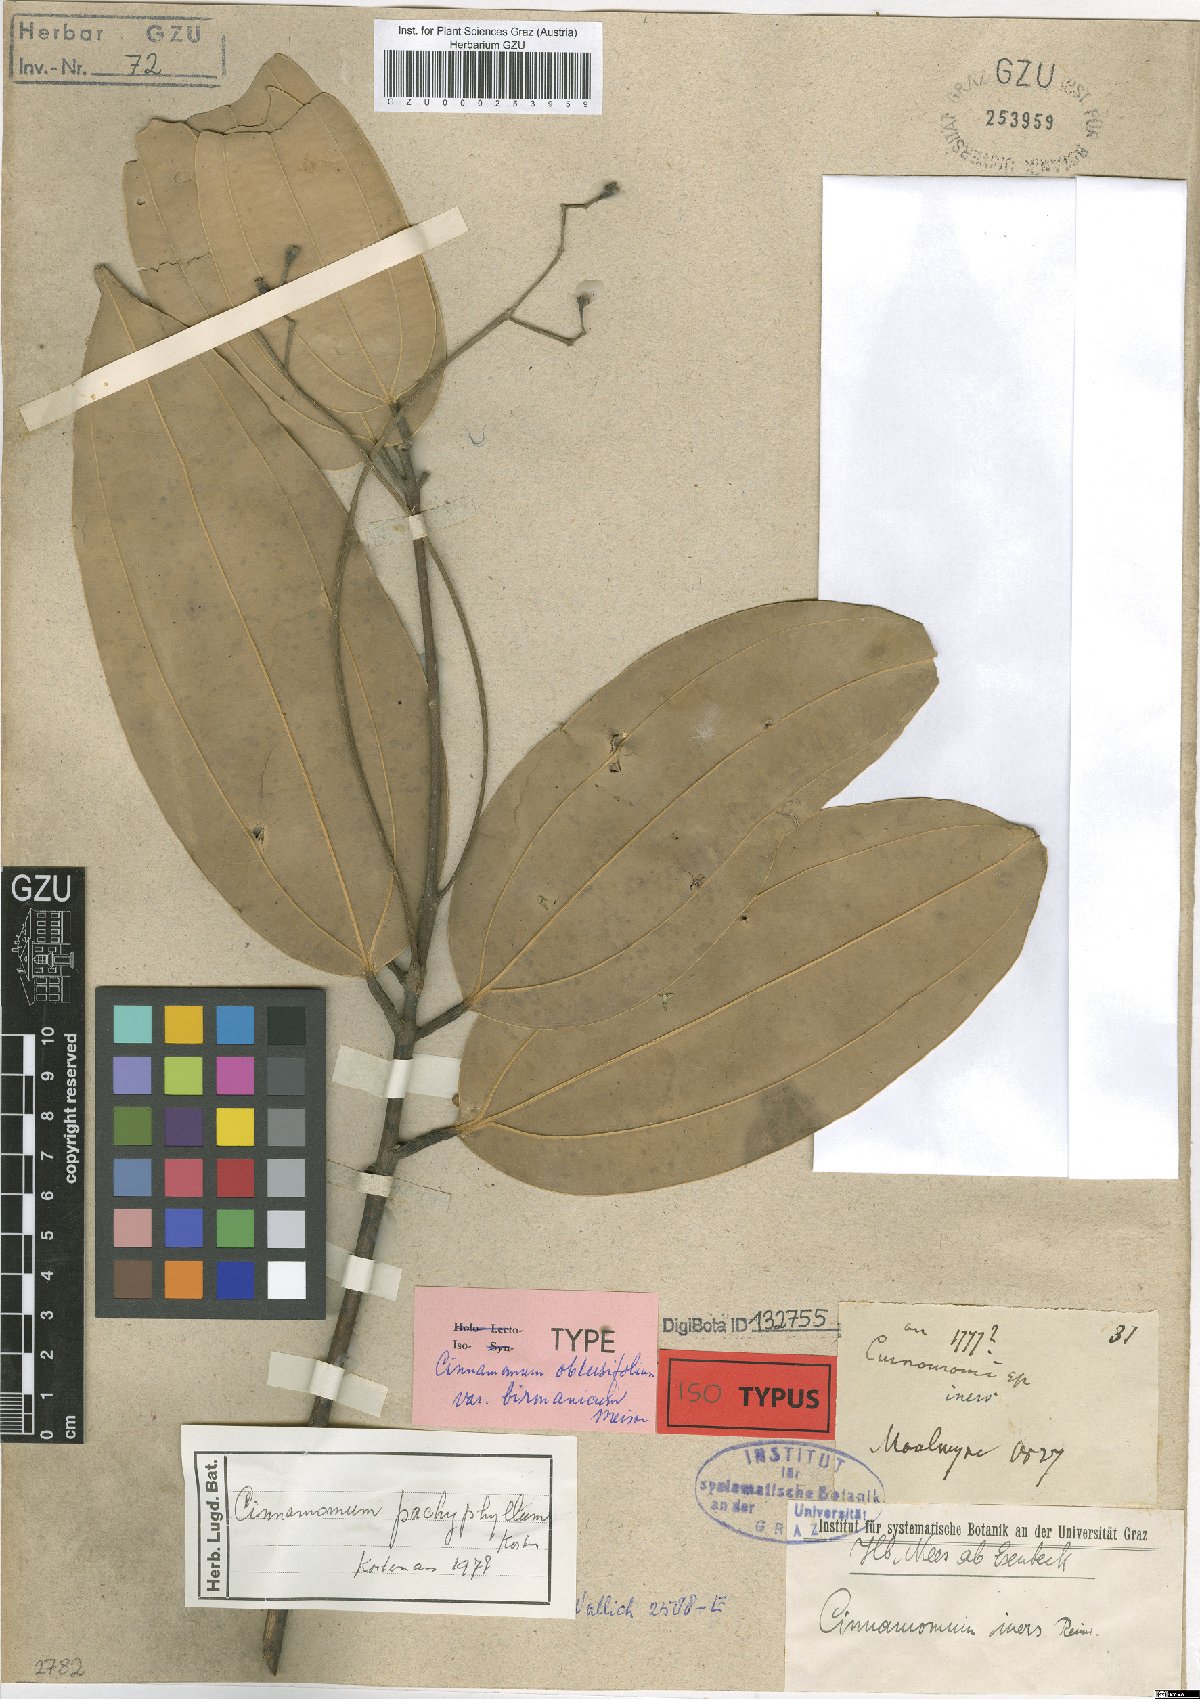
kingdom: Plantae
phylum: Tracheophyta
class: Magnoliopsida
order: Laurales
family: Lauraceae
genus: Cinnamomum
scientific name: Cinnamomum pachyphyllum
